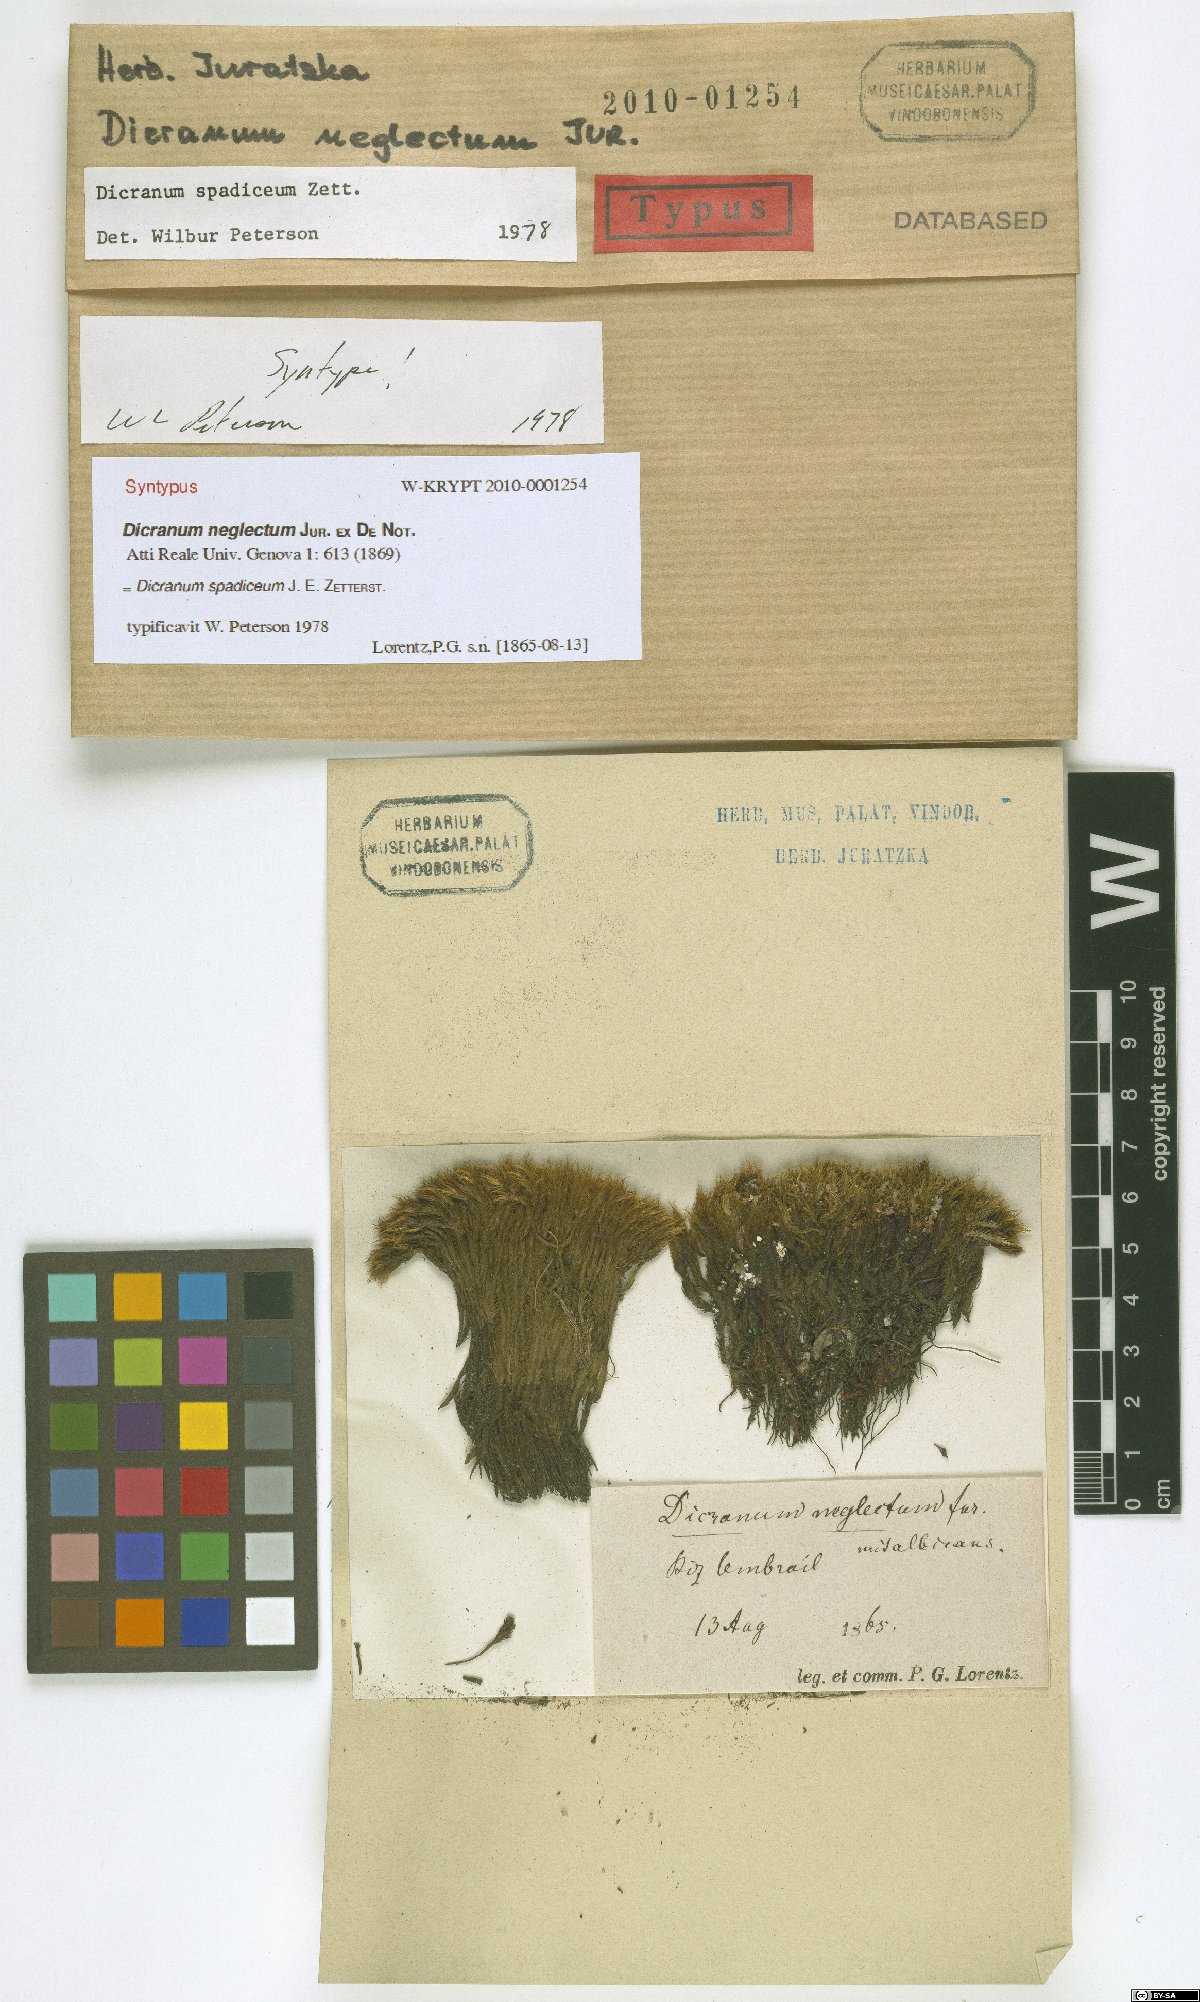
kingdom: Plantae
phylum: Bryophyta
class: Bryopsida
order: Dicranales
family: Dicranaceae
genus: Dicranum
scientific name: Dicranum spadiceum
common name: Confusing broom moss
